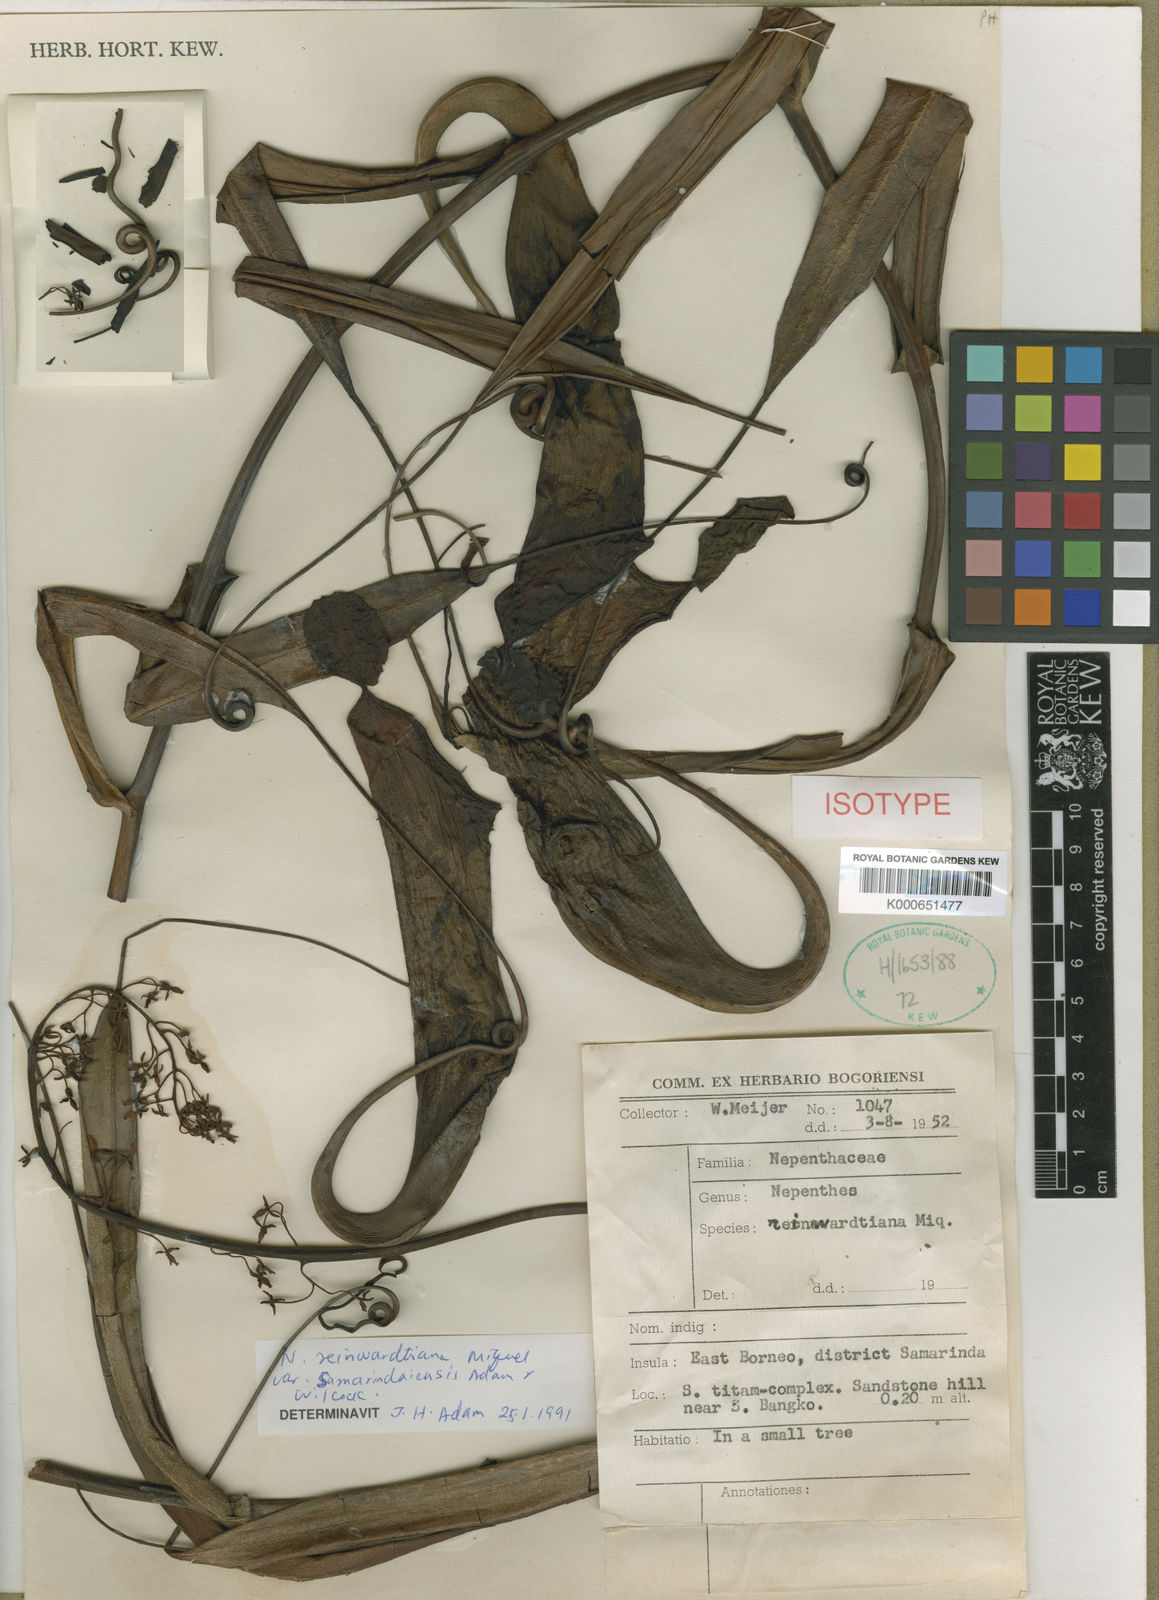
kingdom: Plantae
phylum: Tracheophyta
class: Magnoliopsida
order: Caryophyllales
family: Nepenthaceae
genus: Nepenthes
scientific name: Nepenthes reinwardtiana
